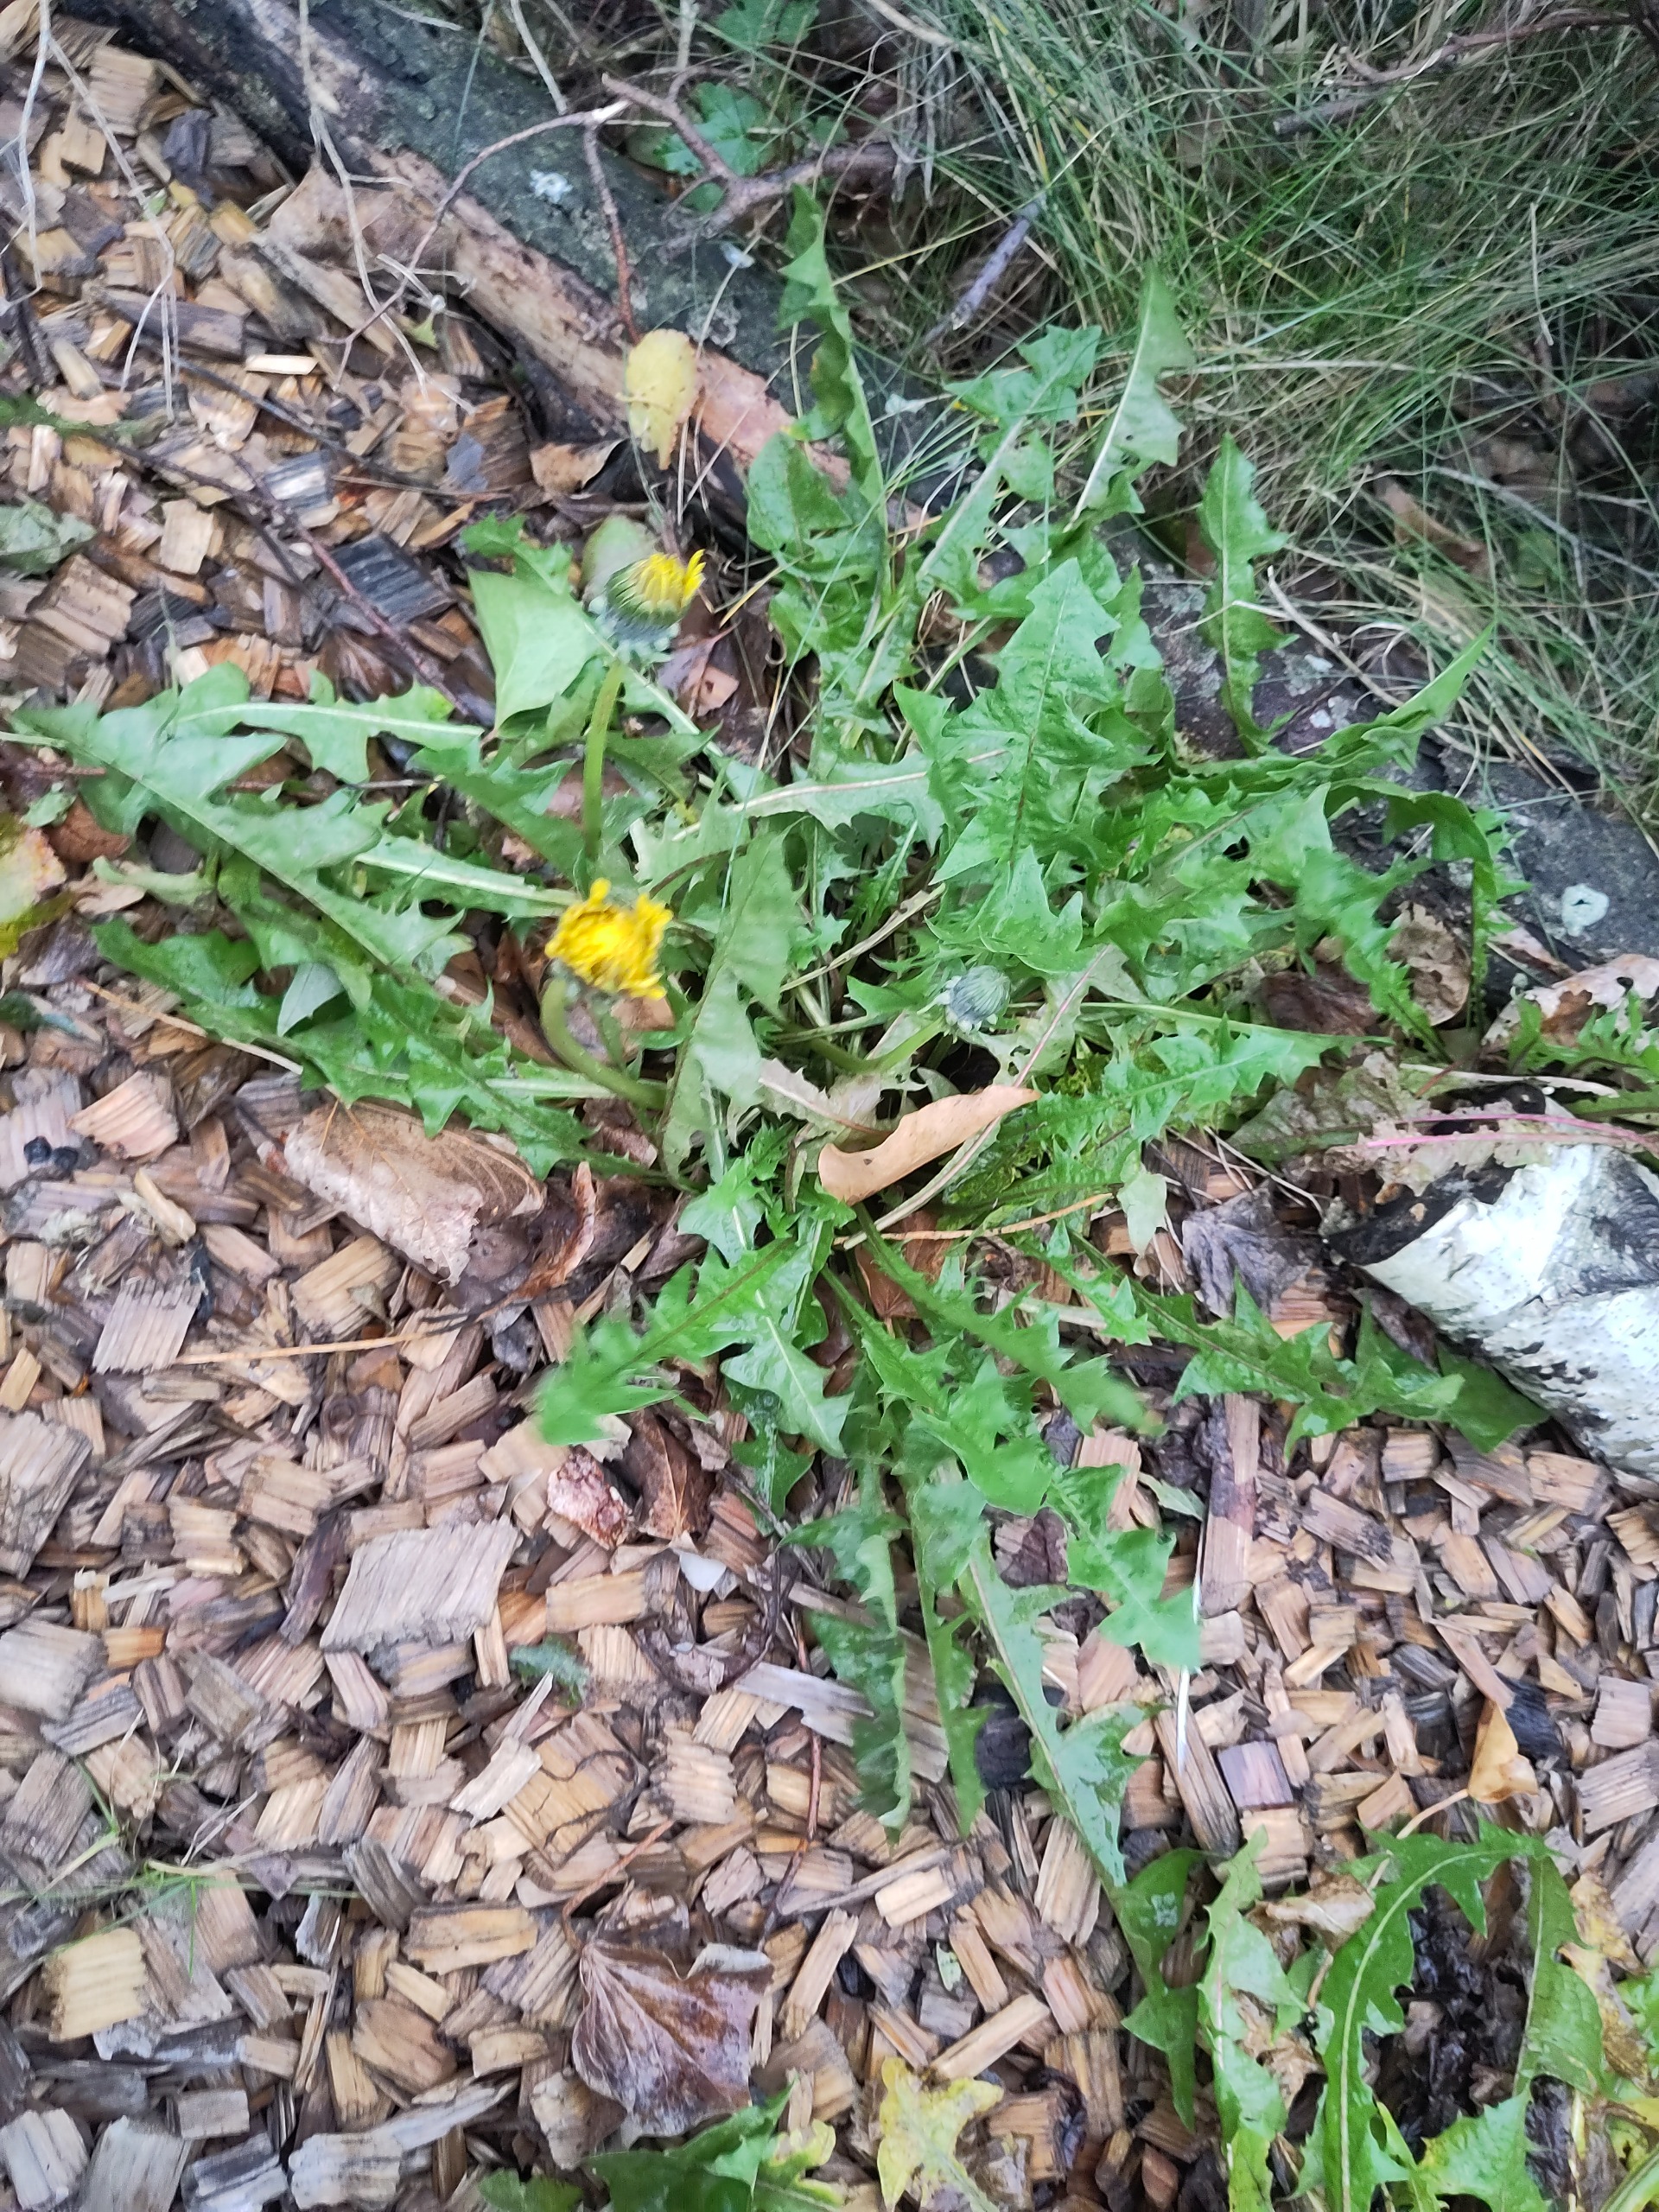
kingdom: Plantae
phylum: Tracheophyta
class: Magnoliopsida
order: Asterales
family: Asteraceae
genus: Taraxacum
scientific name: Taraxacum
